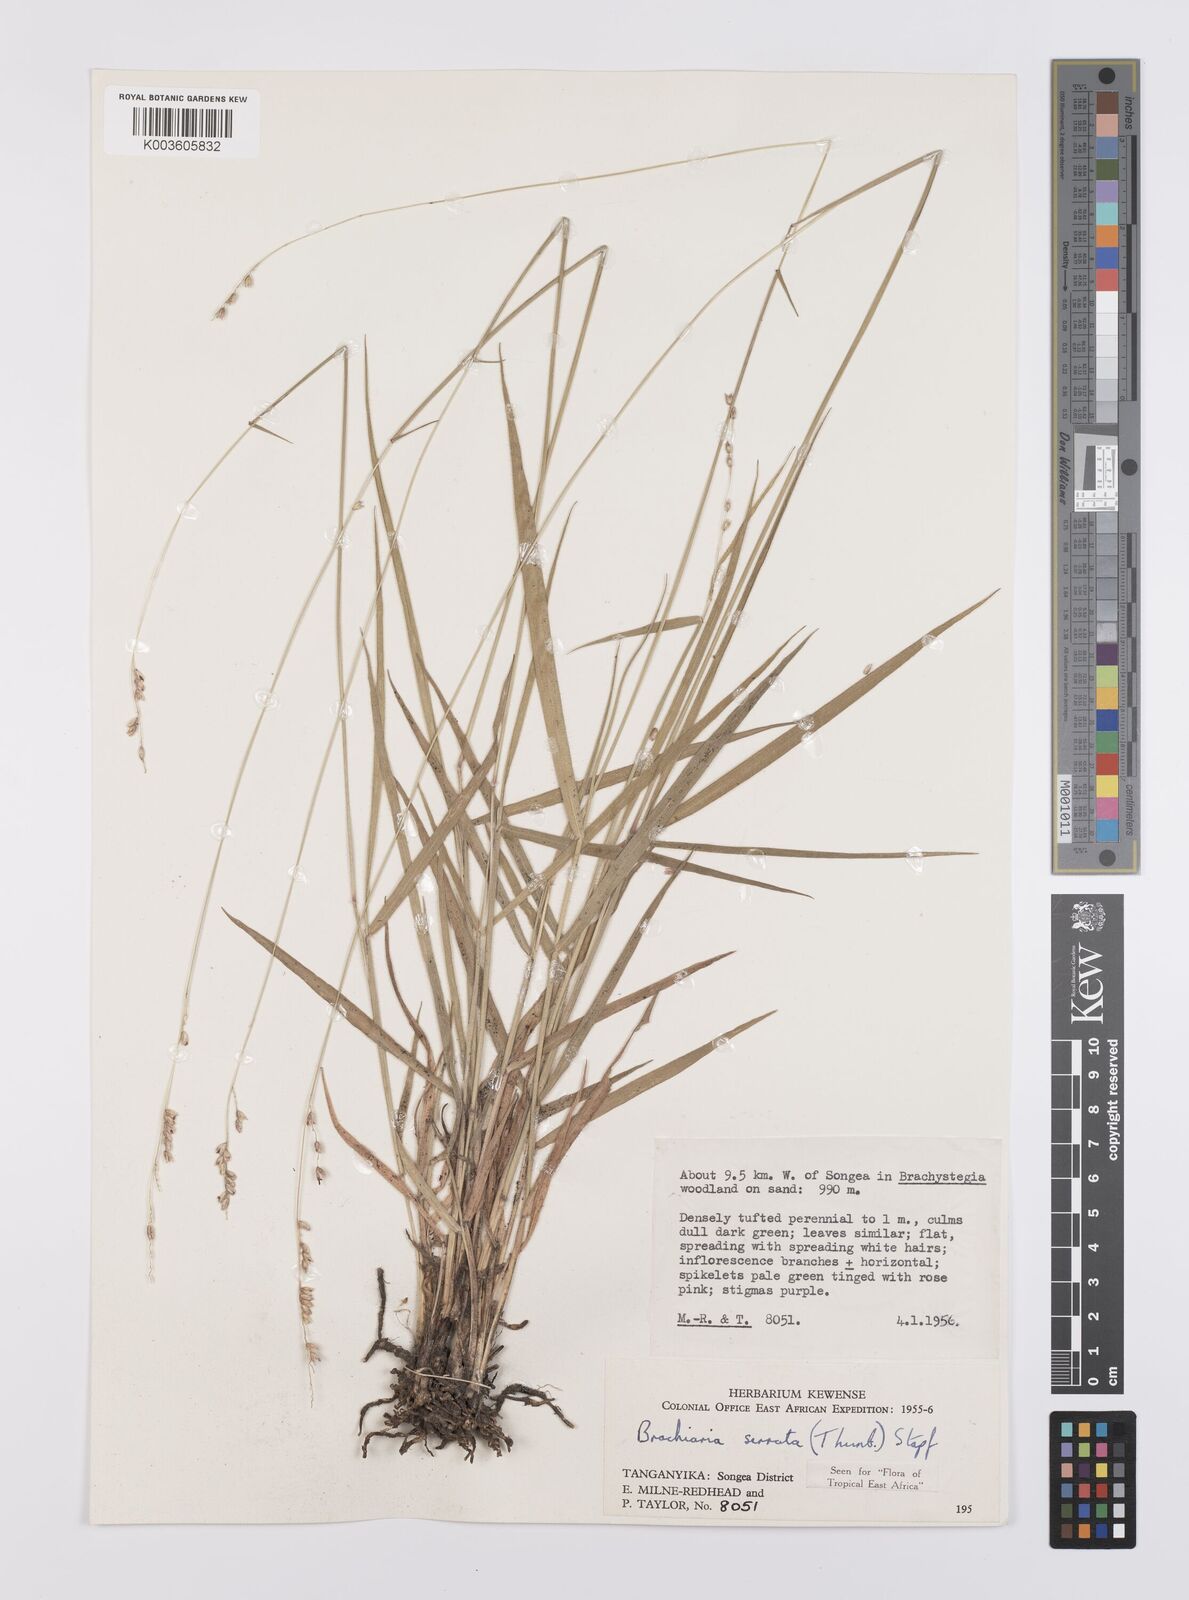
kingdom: Plantae
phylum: Tracheophyta
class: Liliopsida
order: Poales
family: Poaceae
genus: Urochloa
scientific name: Urochloa serrata
